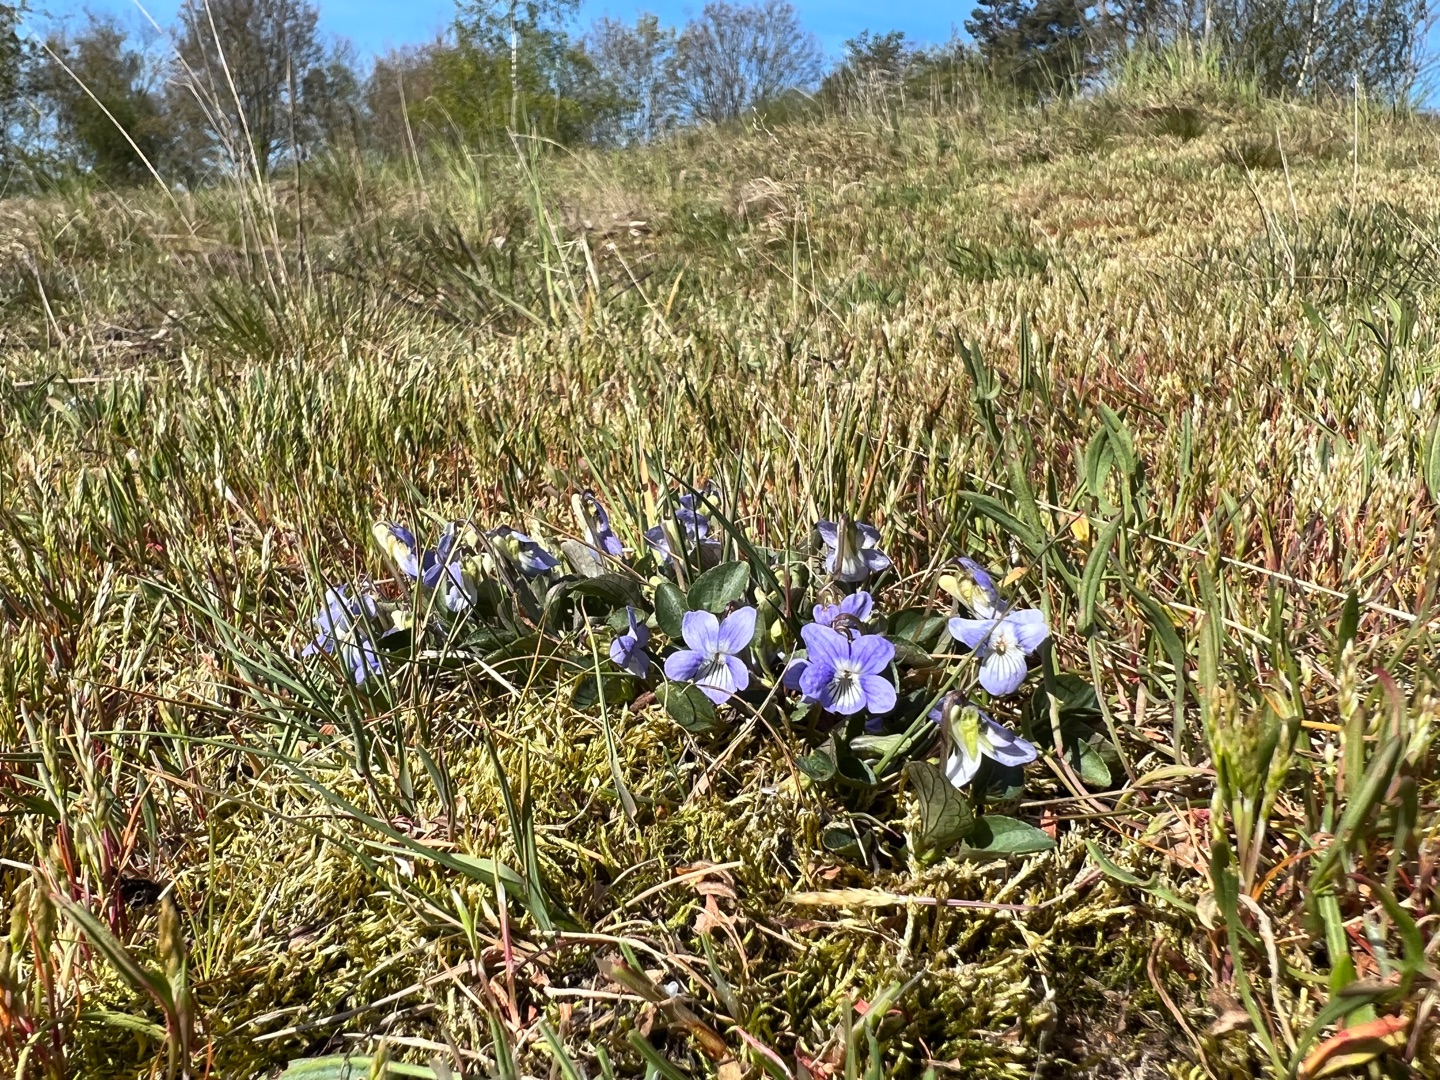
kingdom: Plantae
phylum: Tracheophyta
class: Magnoliopsida
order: Malpighiales
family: Violaceae
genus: Viola
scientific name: Viola canina
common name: Hunde-viol
